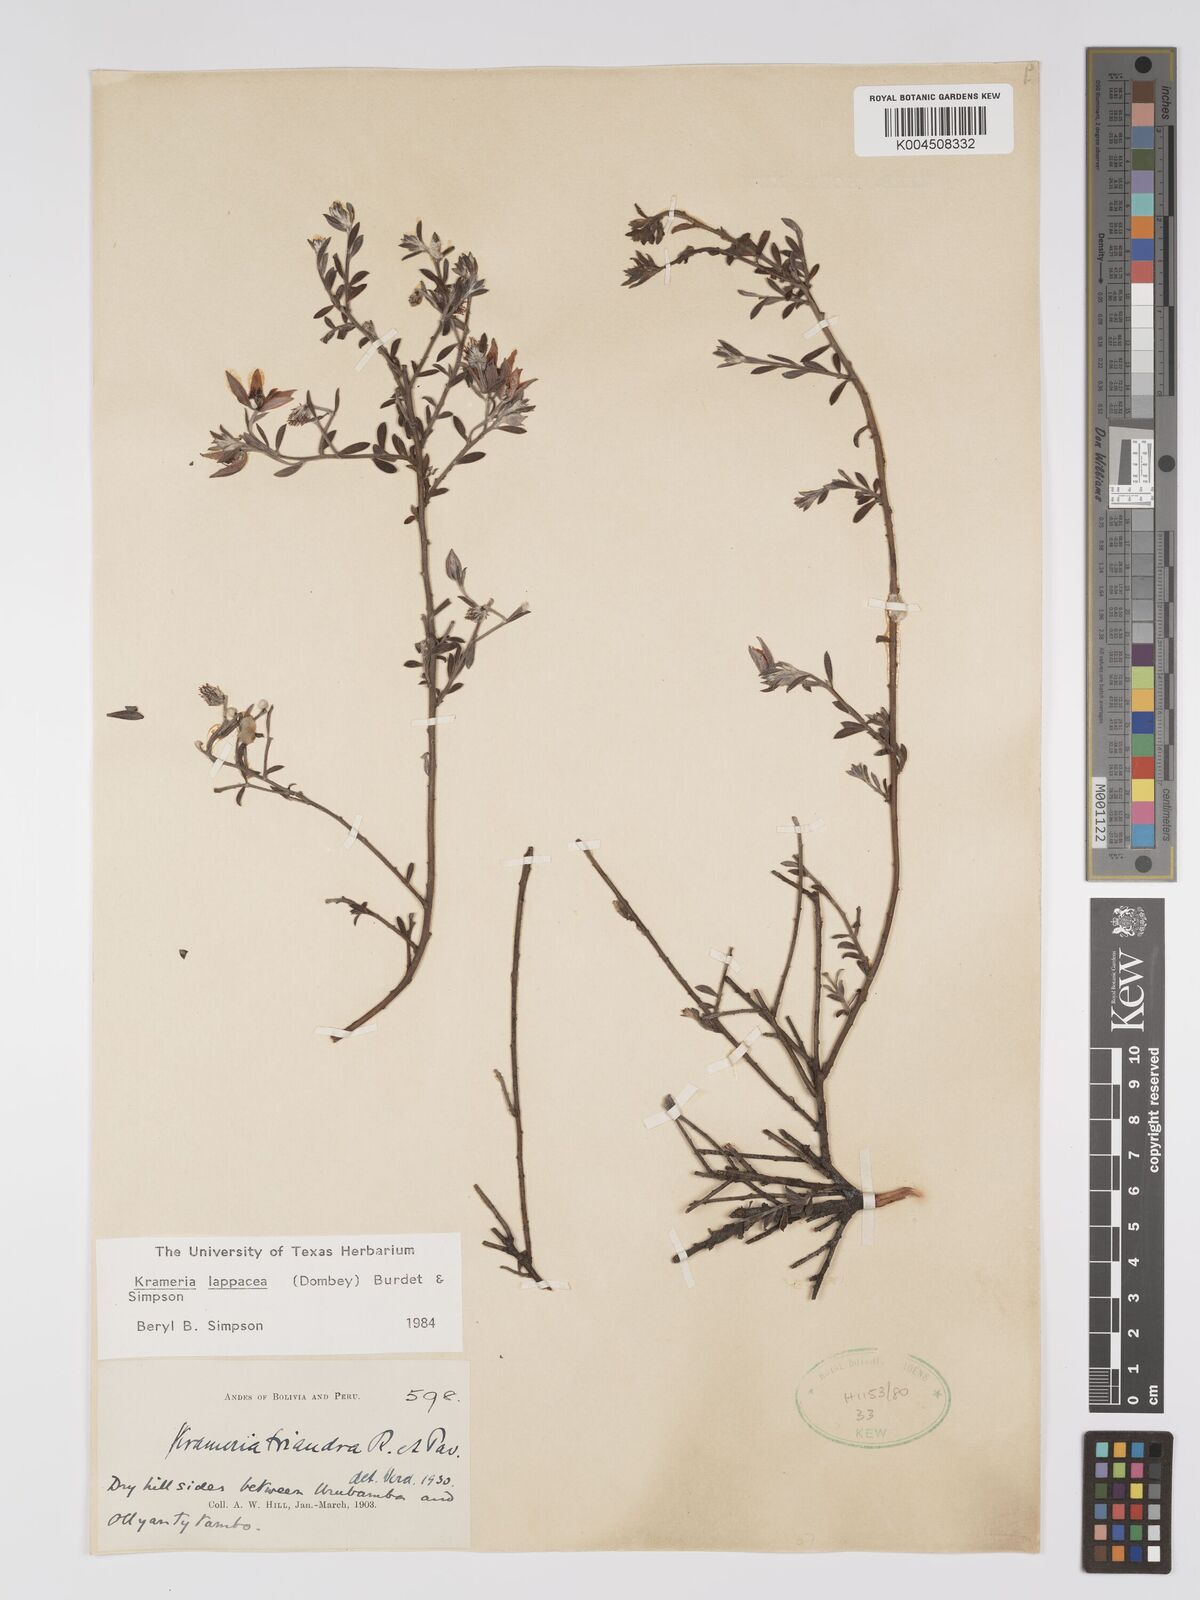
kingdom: Plantae
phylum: Tracheophyta
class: Magnoliopsida
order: Zygophyllales
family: Krameriaceae
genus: Krameria
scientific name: Krameria lappacea
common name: Rhatany
